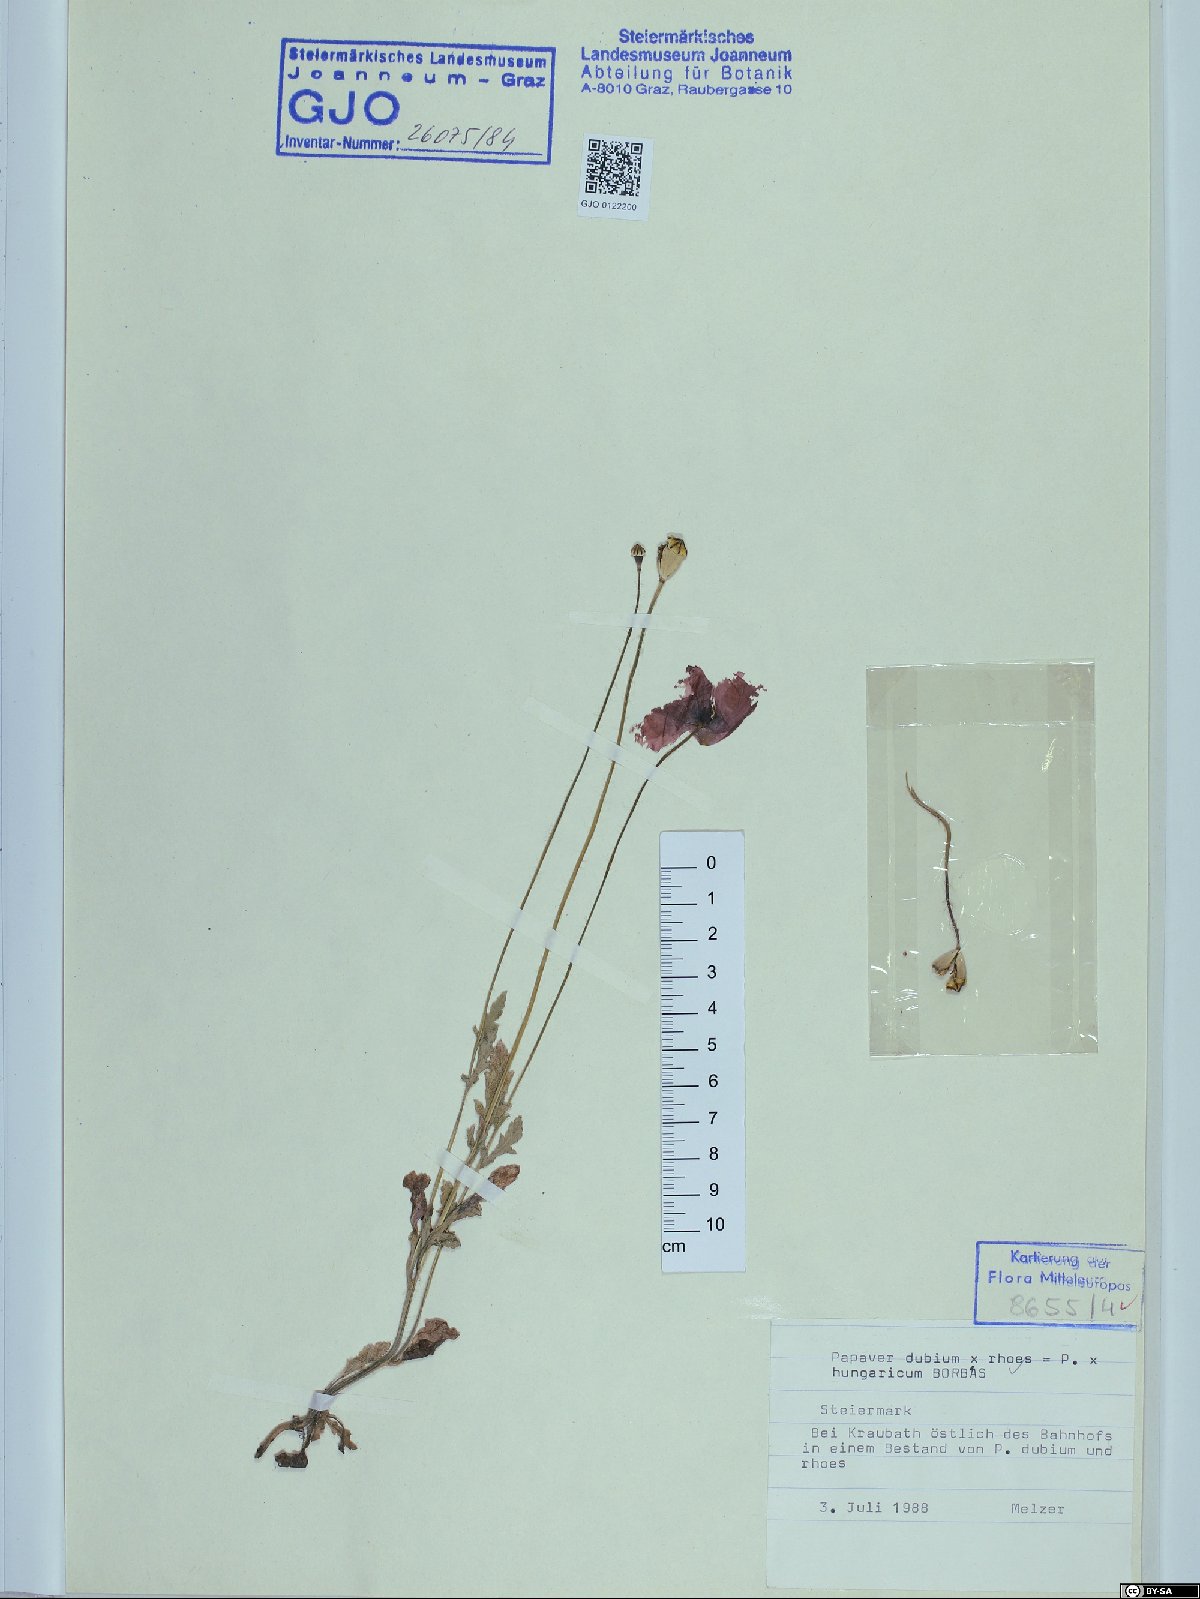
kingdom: Plantae
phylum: Tracheophyta
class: Magnoliopsida
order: Ranunculales
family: Papaveraceae
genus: Papaver
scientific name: Papaver strigosum
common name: Poppy
